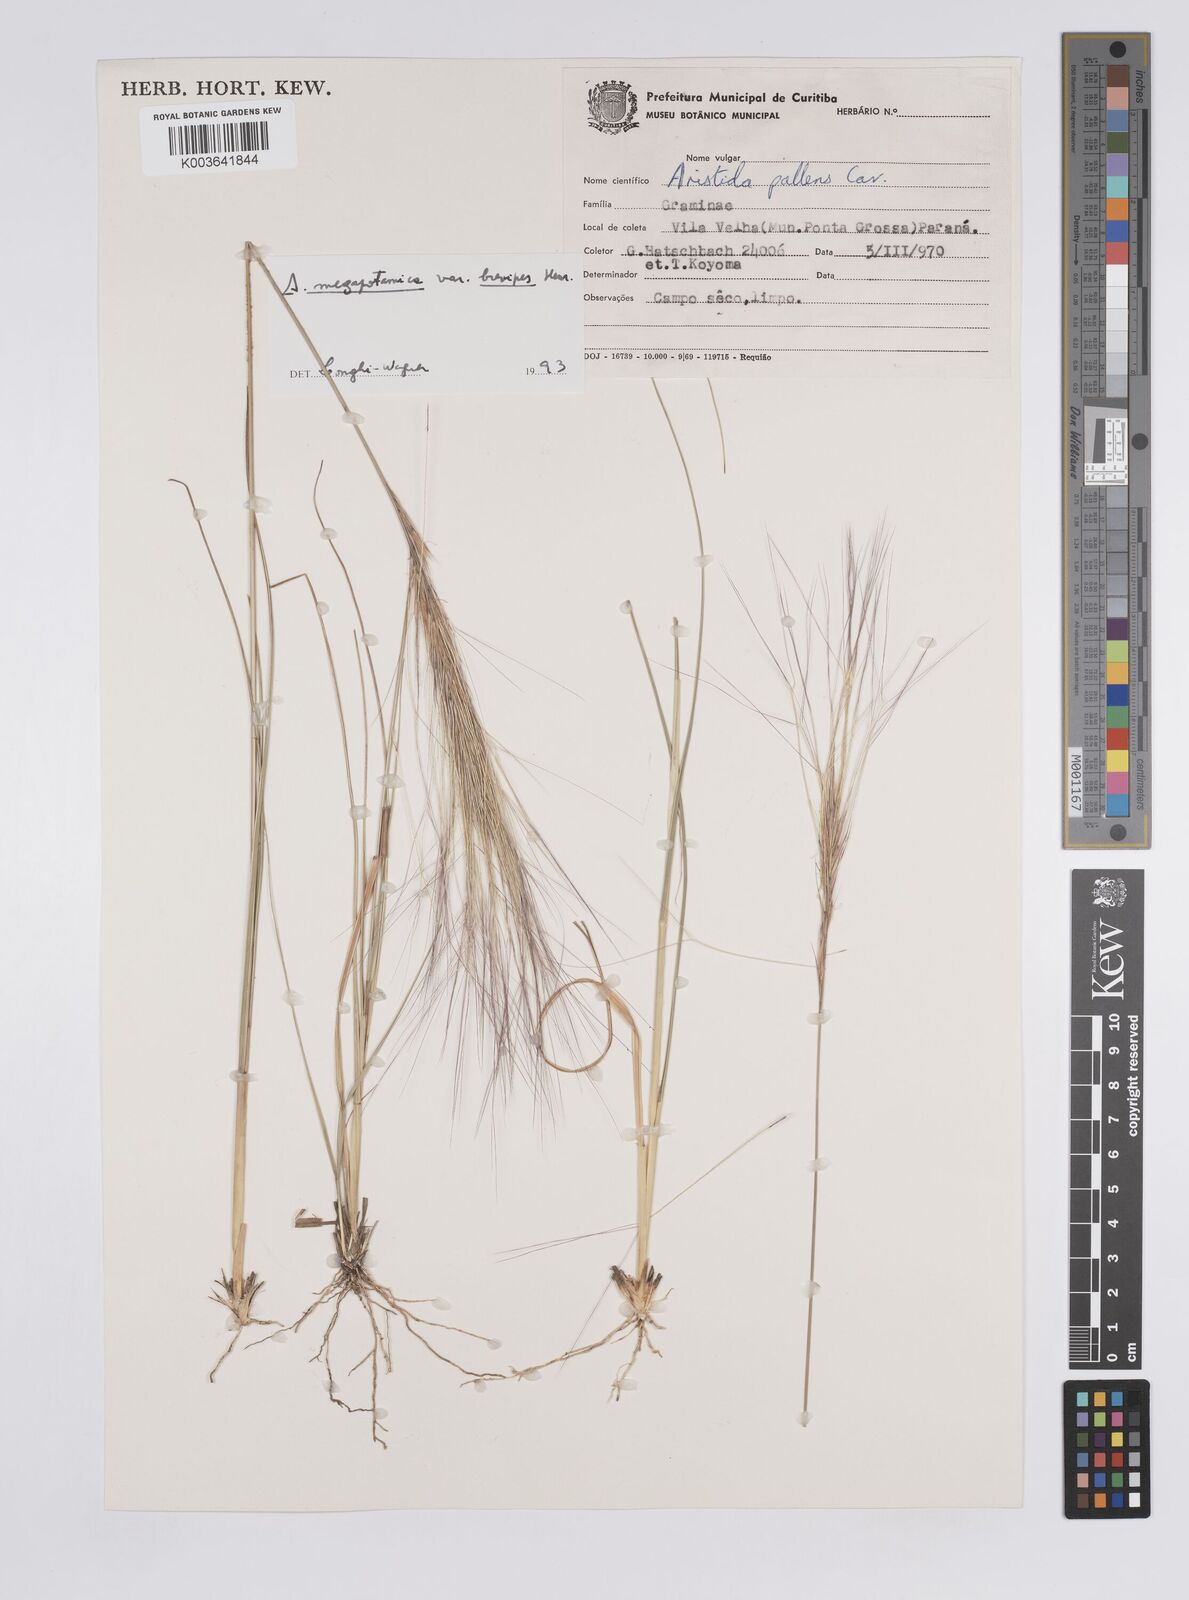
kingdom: Plantae
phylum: Tracheophyta
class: Liliopsida
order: Poales
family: Poaceae
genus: Aristida
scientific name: Aristida megapotamica
